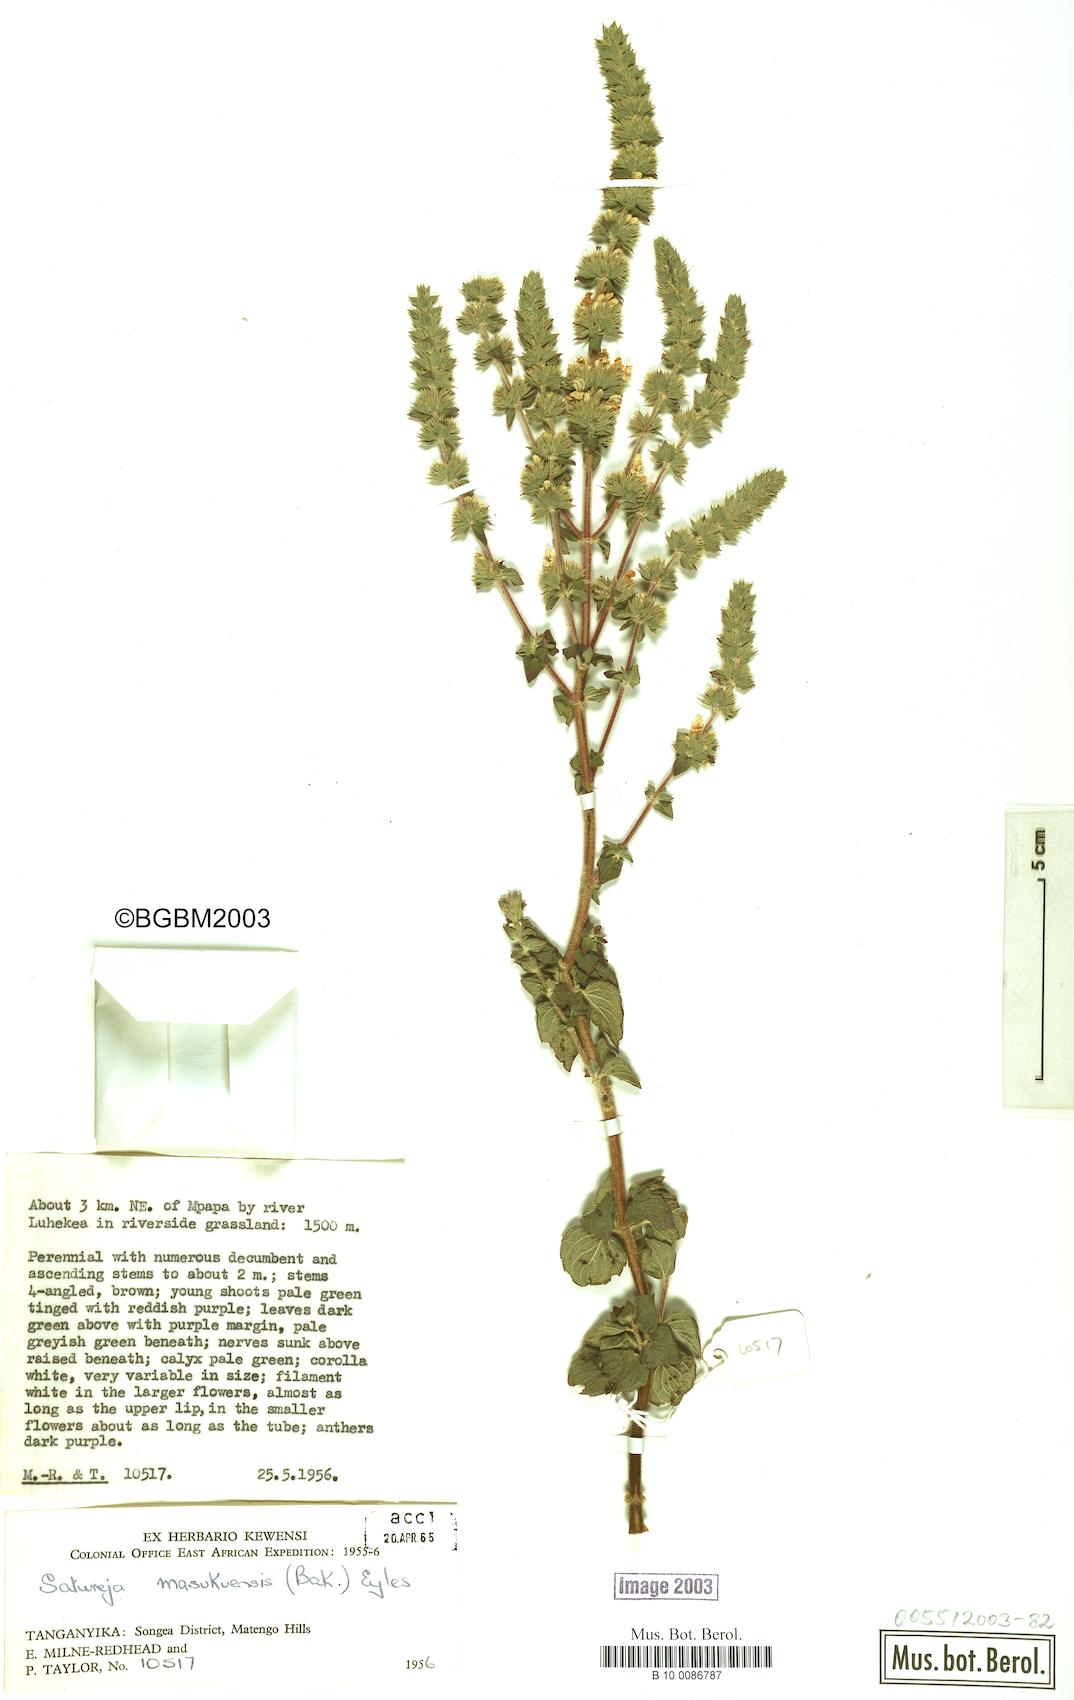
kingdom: Plantae
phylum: Tracheophyta
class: Magnoliopsida
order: Lamiales
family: Lamiaceae
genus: Clinopodium
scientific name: Clinopodium myrianthum
